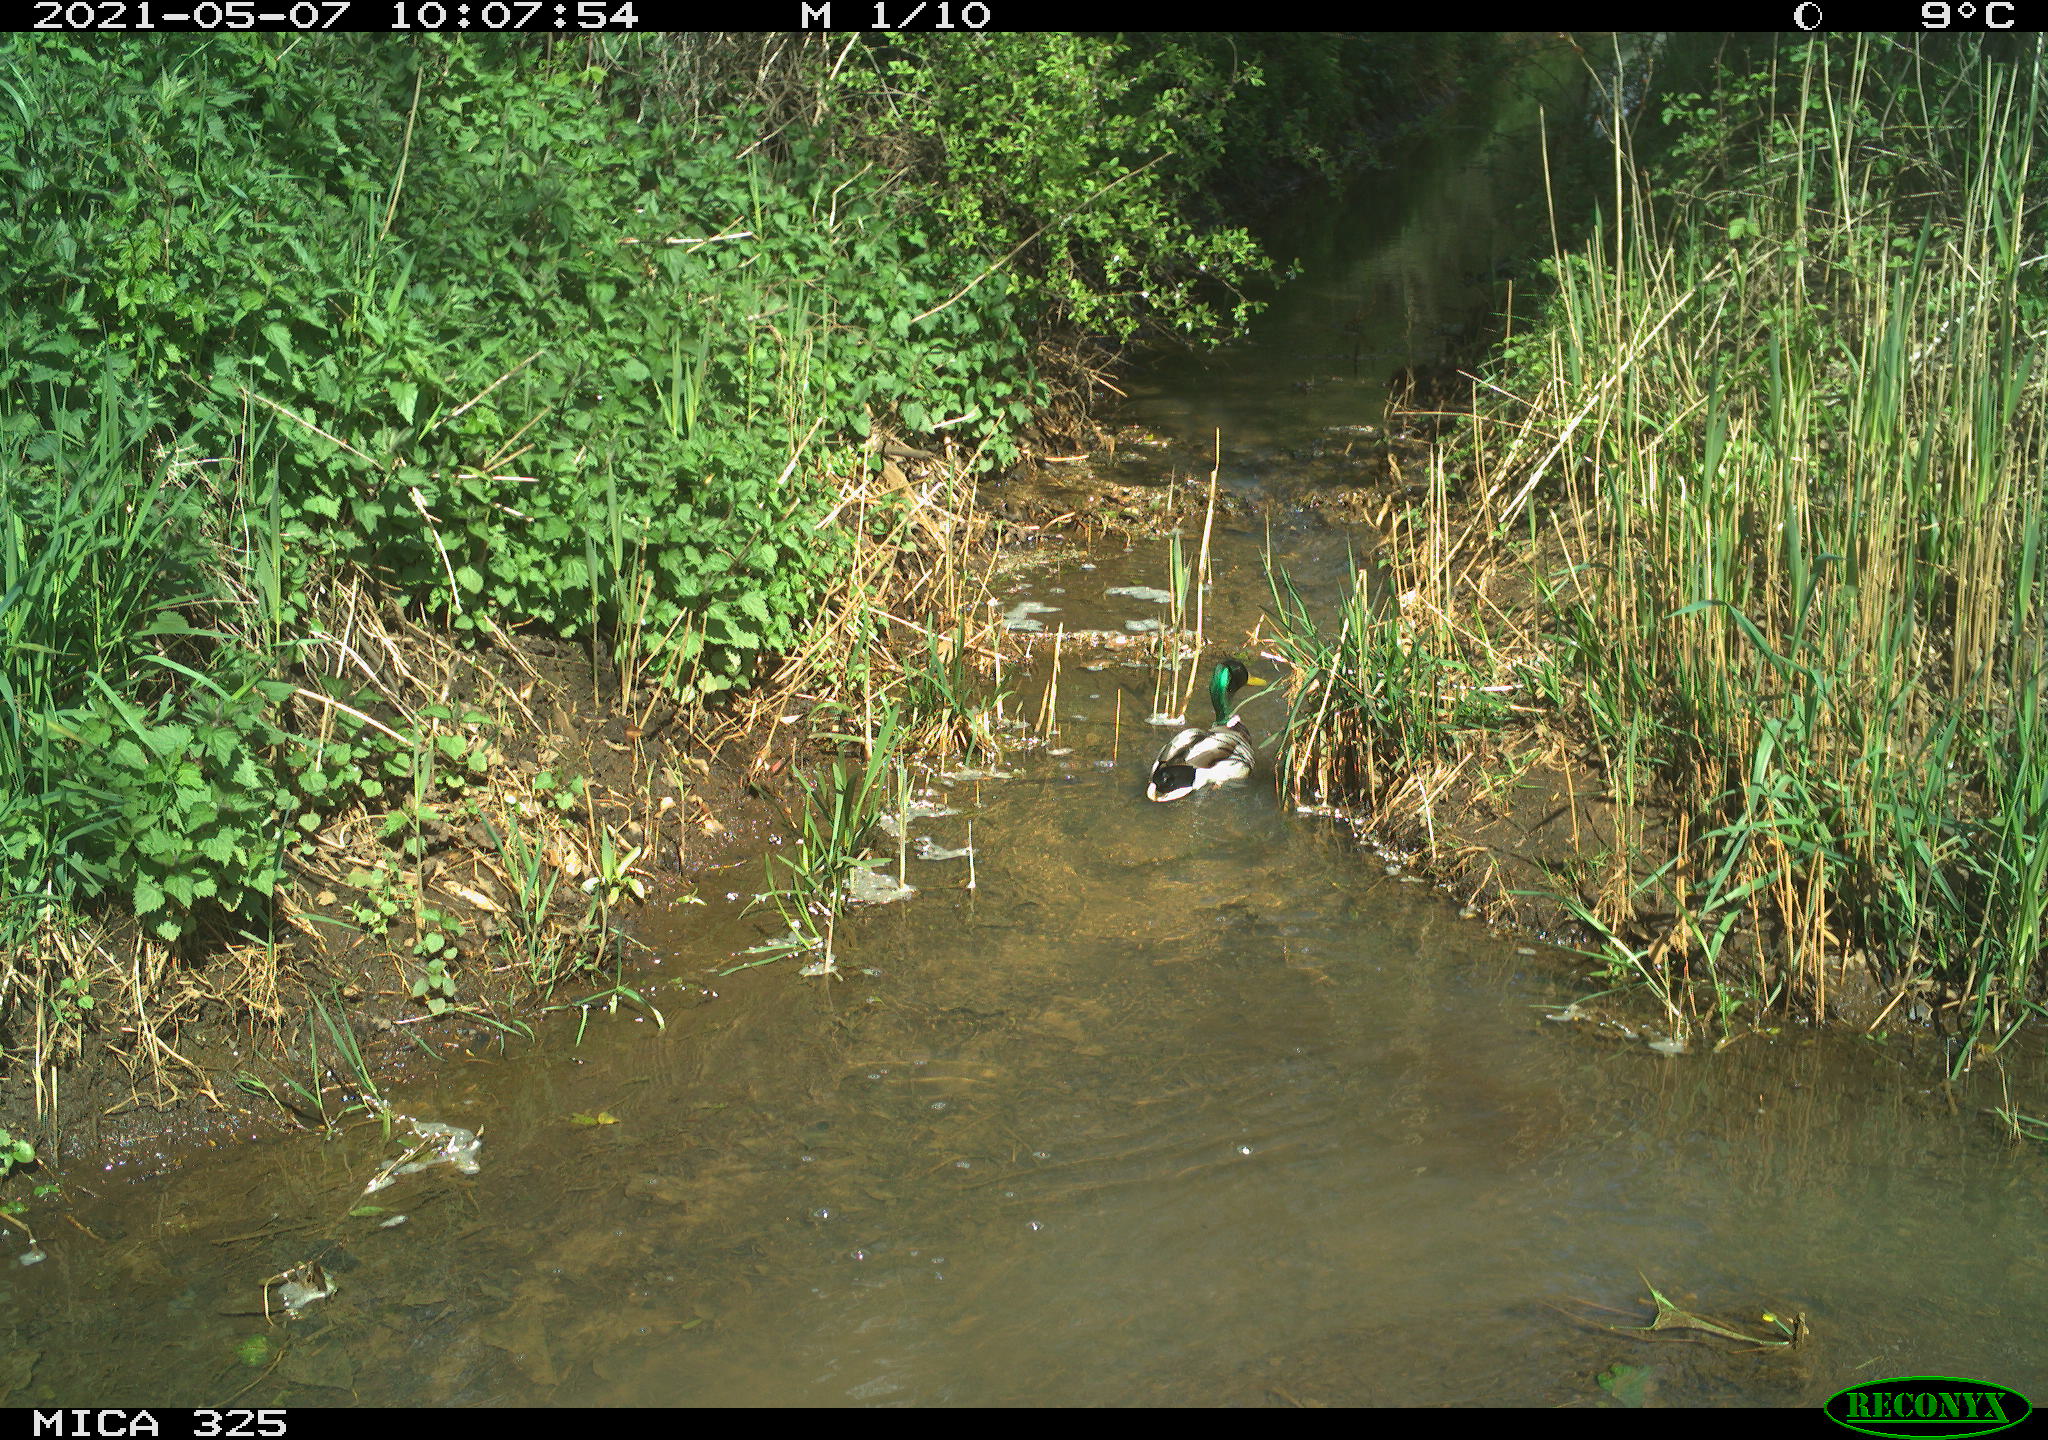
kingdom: Animalia
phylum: Chordata
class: Aves
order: Anseriformes
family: Anatidae
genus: Anas
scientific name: Anas platyrhynchos
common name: Mallard
